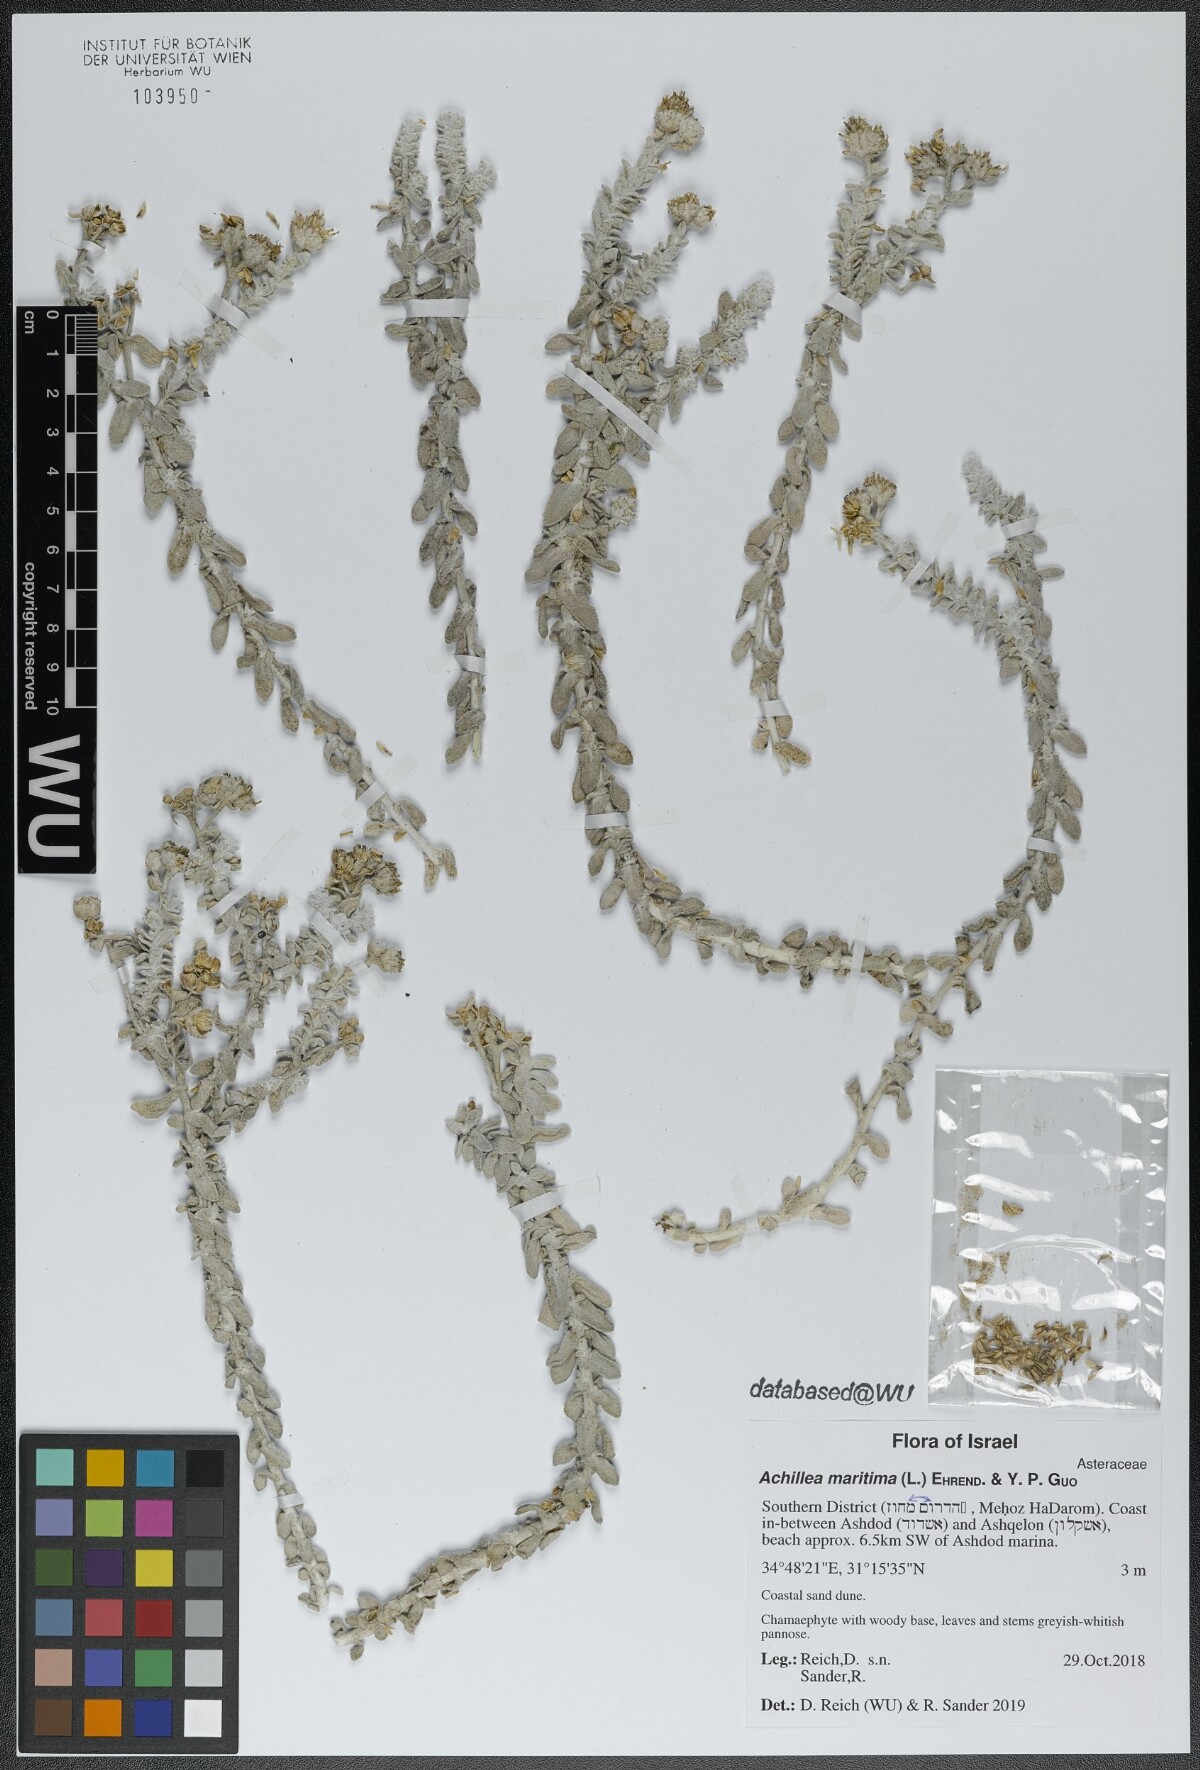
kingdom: Plantae
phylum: Tracheophyta
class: Magnoliopsida
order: Asterales
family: Asteraceae
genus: Achillea
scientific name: Achillea maritima
